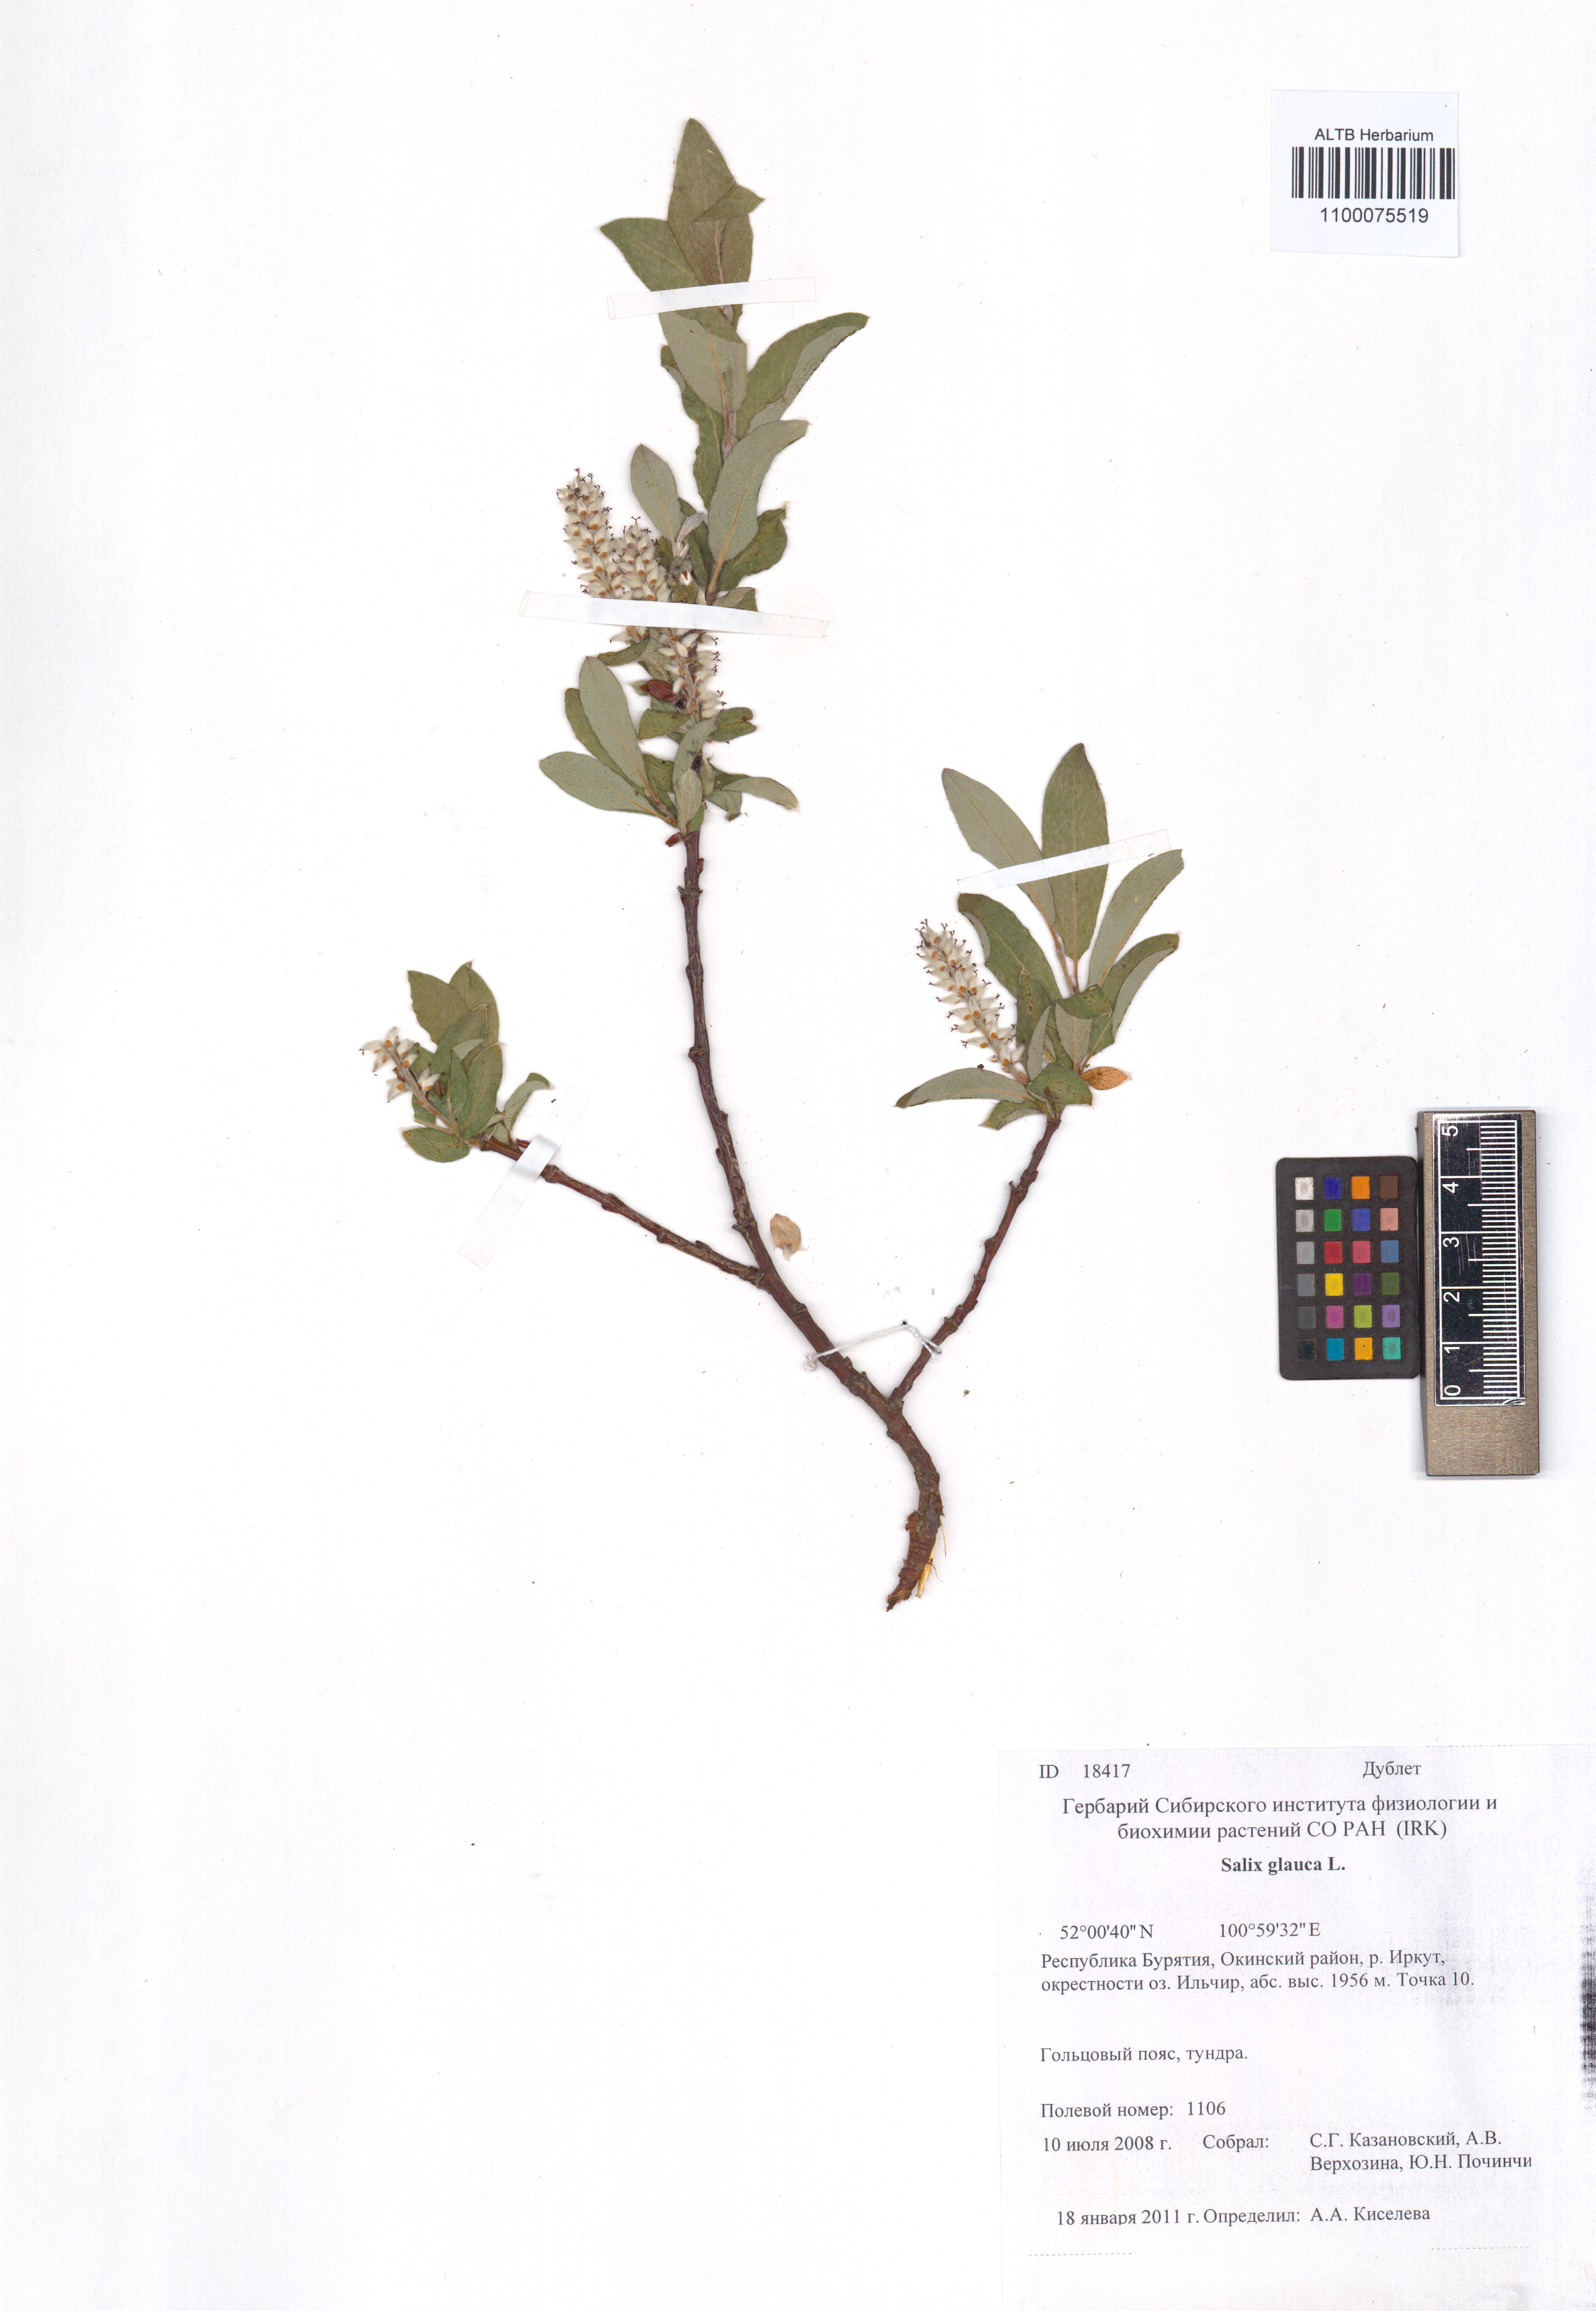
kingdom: Plantae
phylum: Tracheophyta
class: Magnoliopsida
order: Malpighiales
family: Salicaceae
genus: Salix
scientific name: Salix glauca
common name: Glaucous willow
